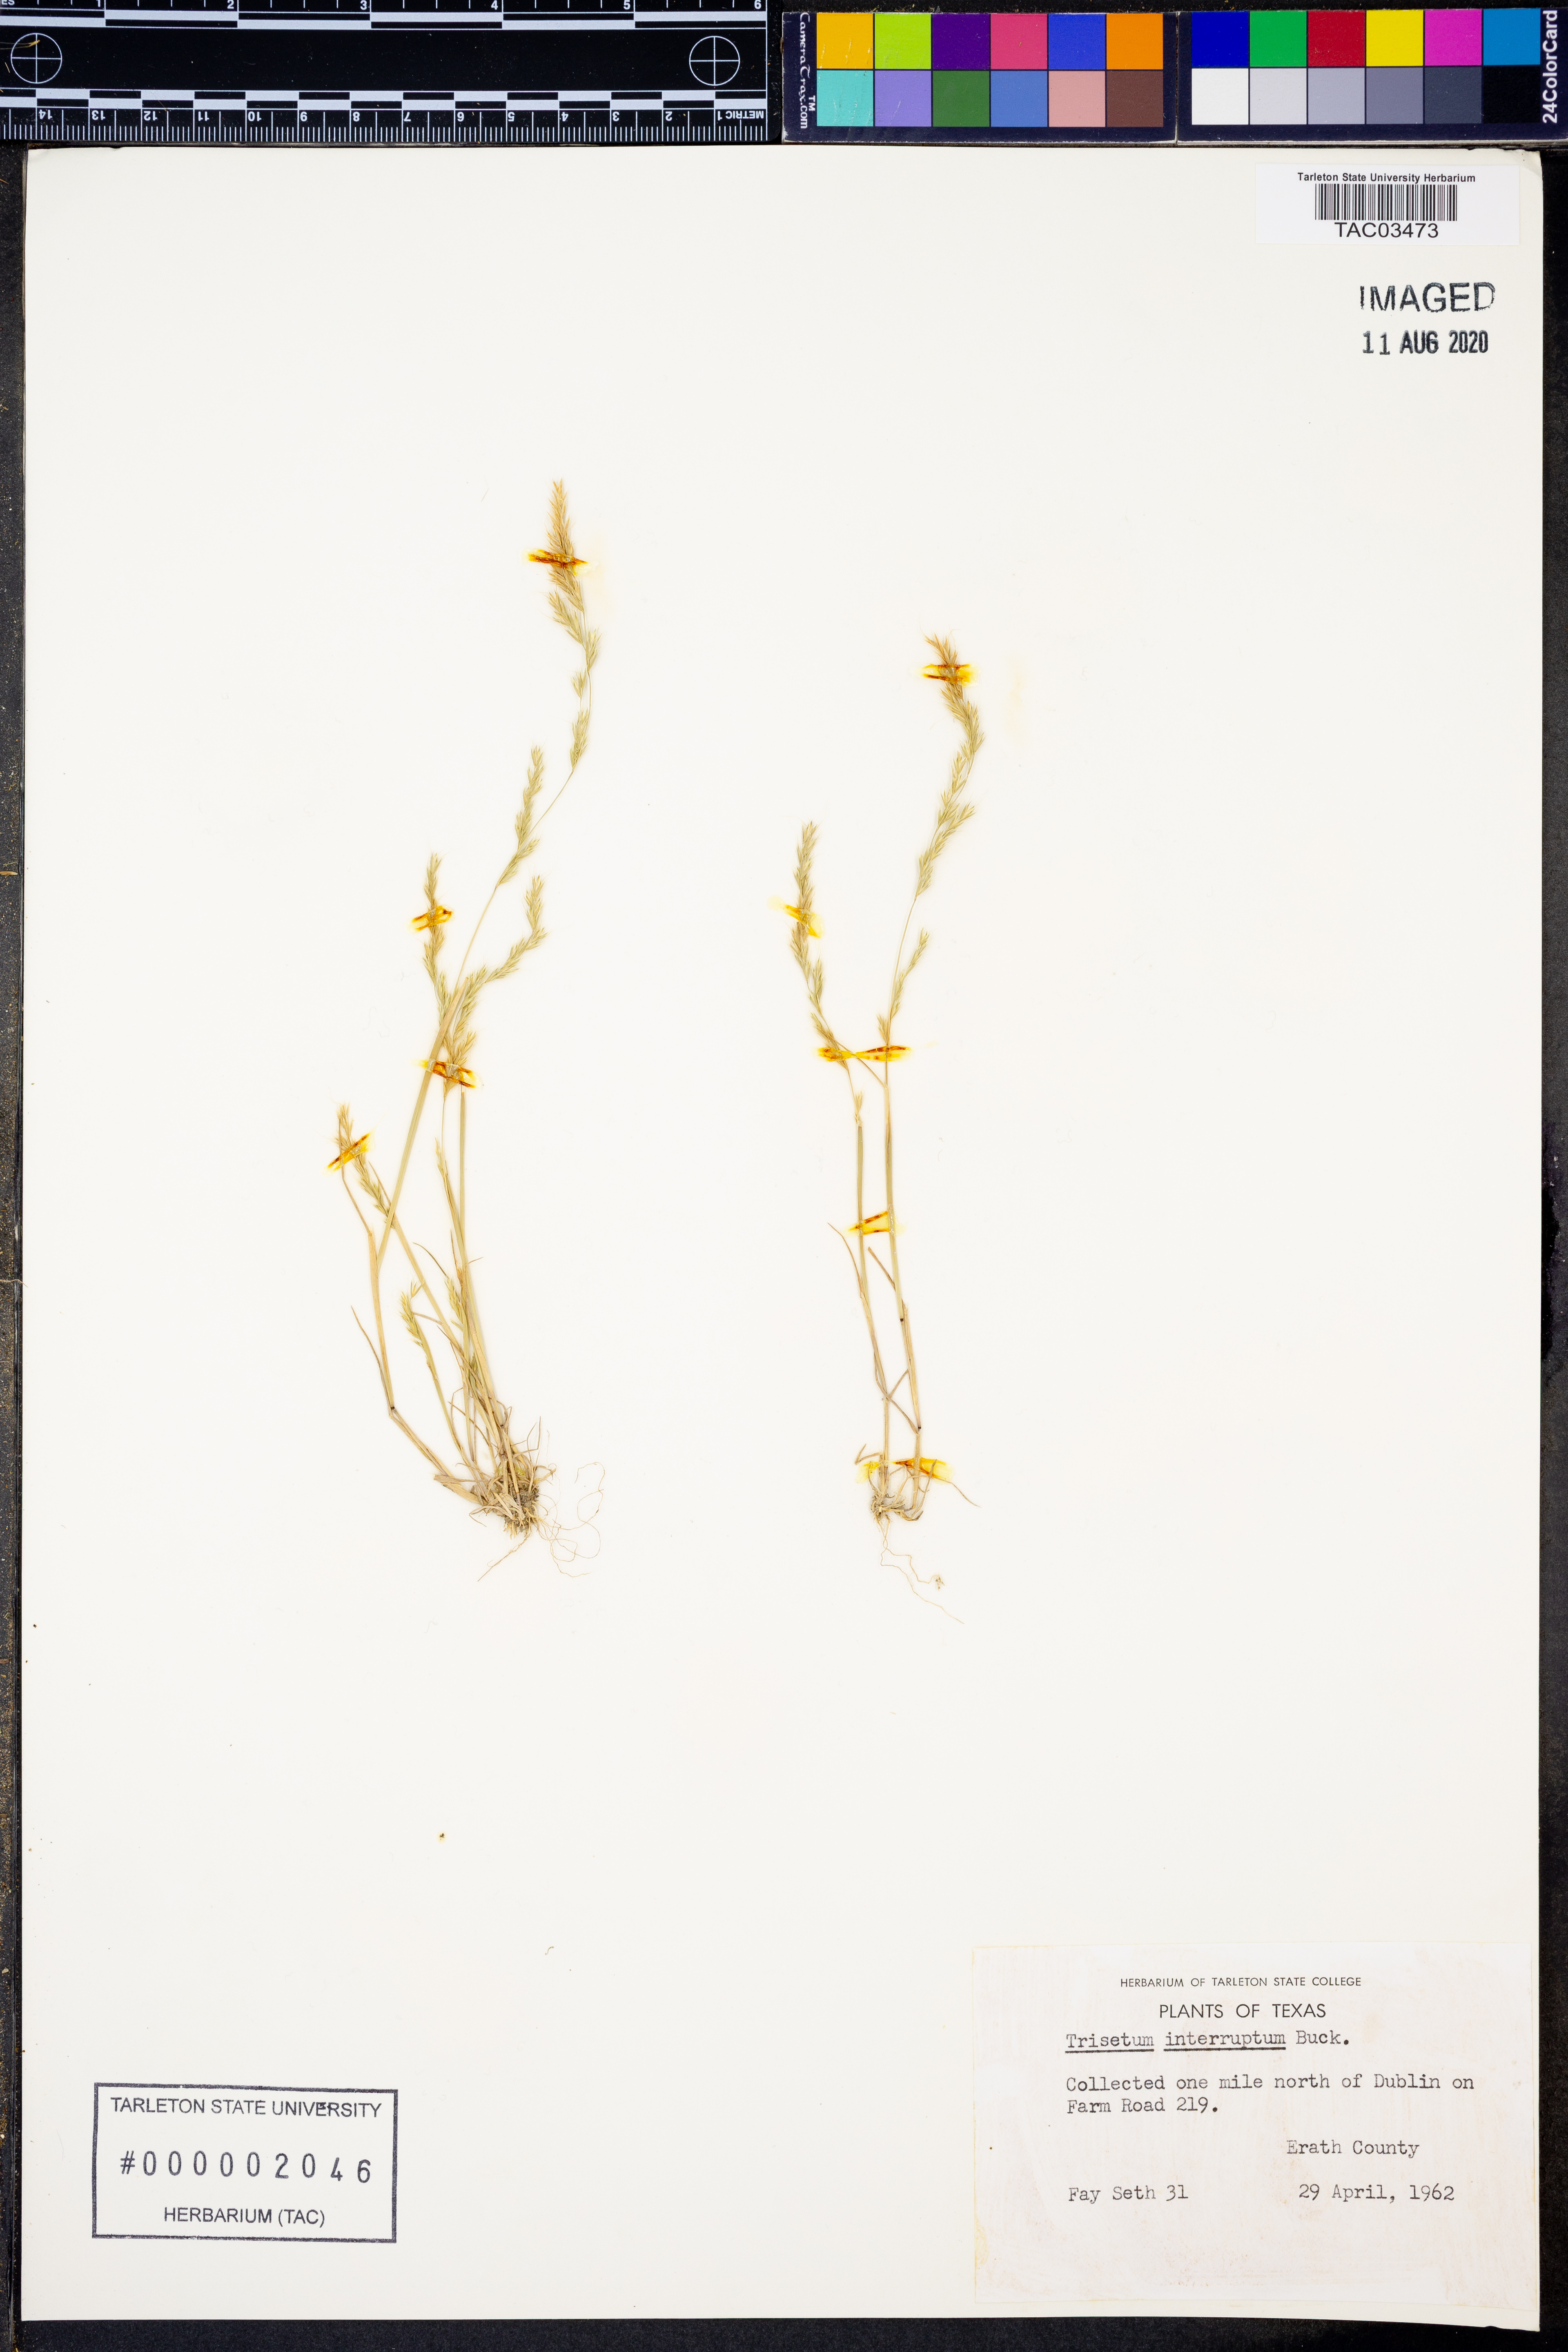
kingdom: Plantae
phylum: Tracheophyta
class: Liliopsida
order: Poales
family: Poaceae
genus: Sphenopholis
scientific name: Sphenopholis interrupta
